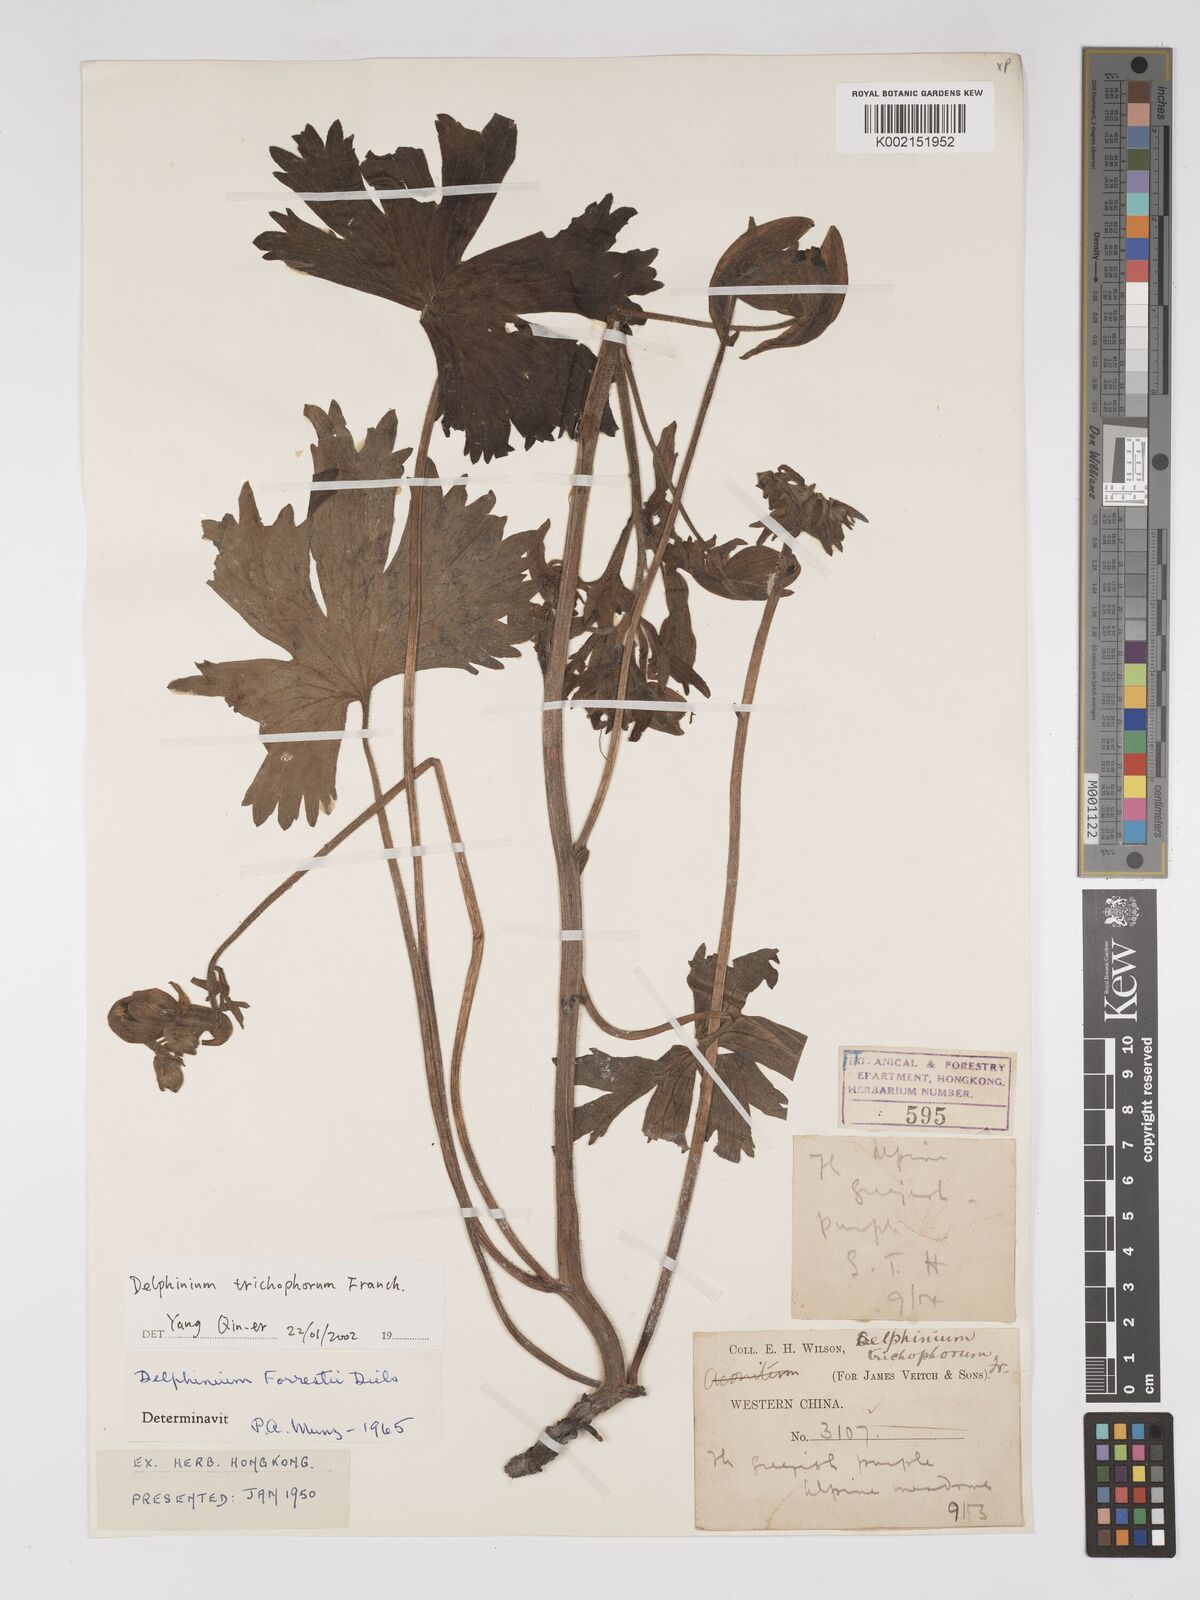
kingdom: Plantae
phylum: Tracheophyta
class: Magnoliopsida
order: Ranunculales
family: Ranunculaceae
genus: Delphinium
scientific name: Delphinium trichophorum
